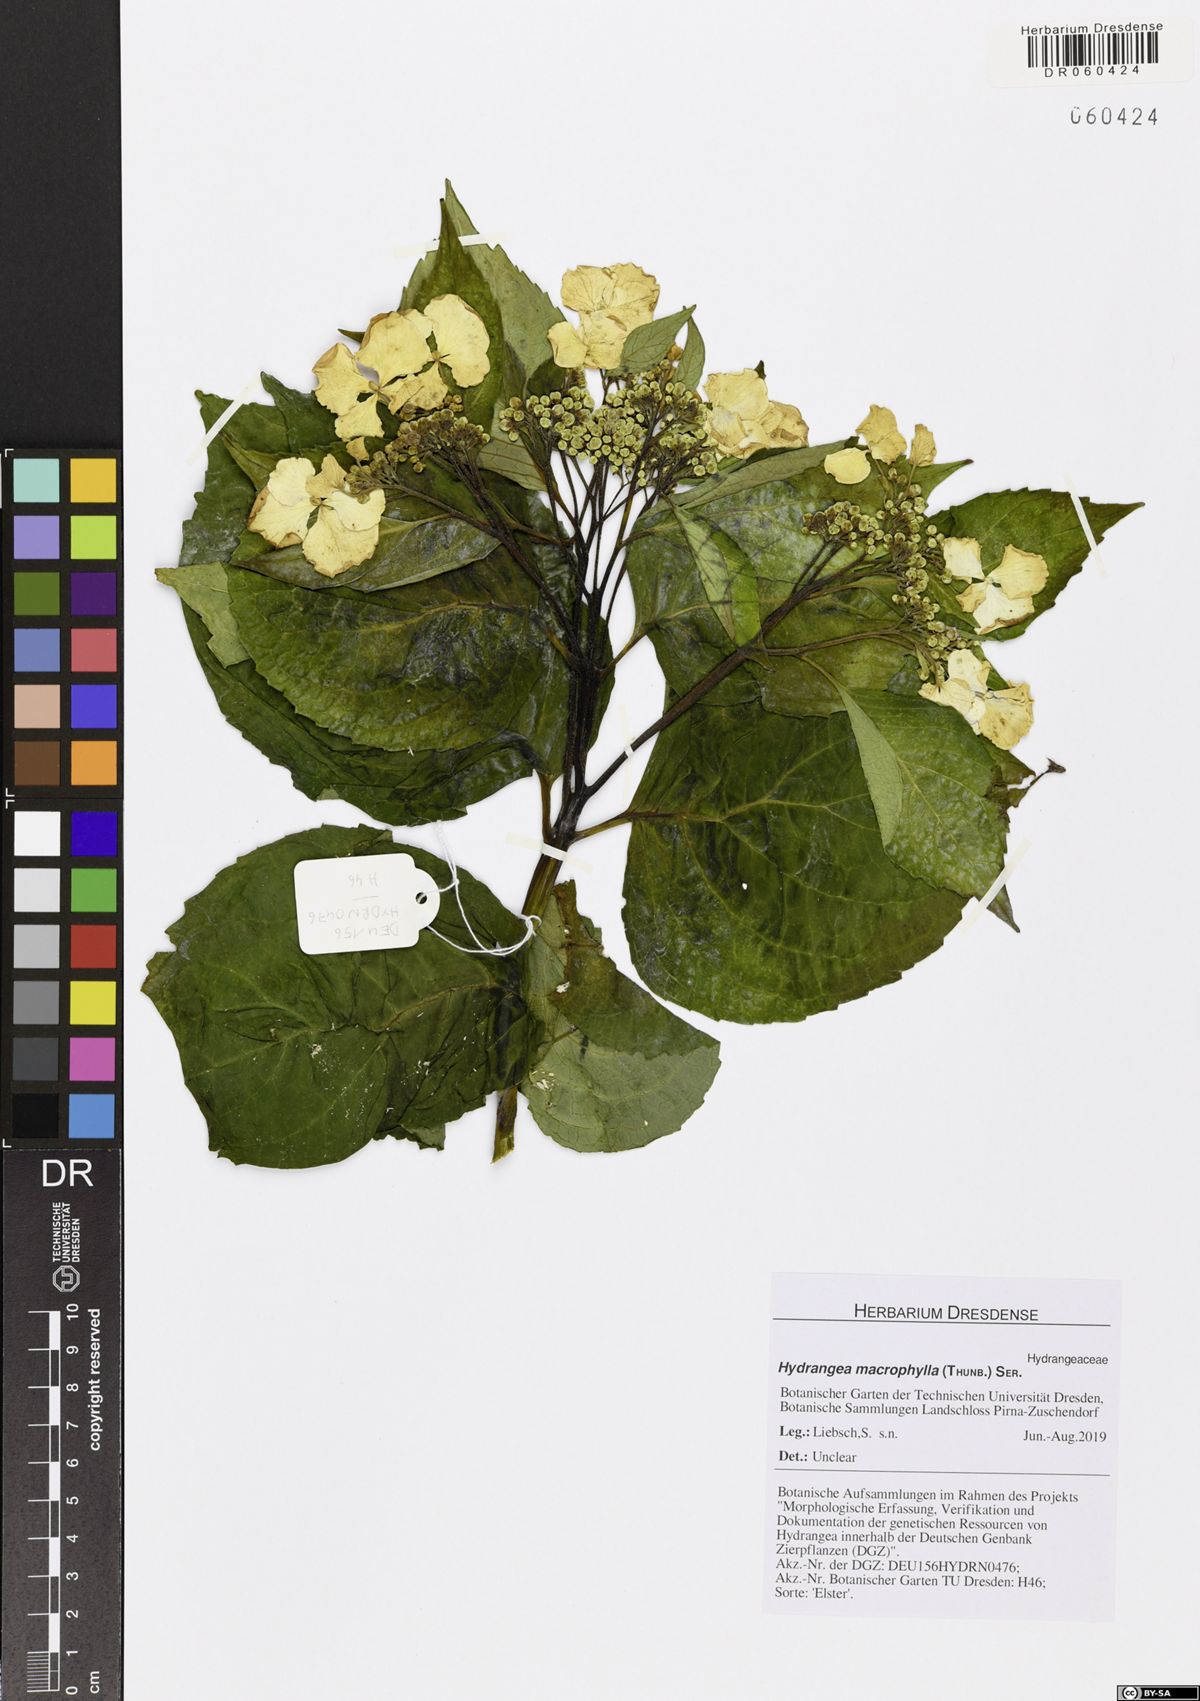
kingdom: Plantae
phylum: Tracheophyta
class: Magnoliopsida
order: Cornales
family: Hydrangeaceae
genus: Hydrangea
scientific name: Hydrangea macrophylla
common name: Hydrangea
